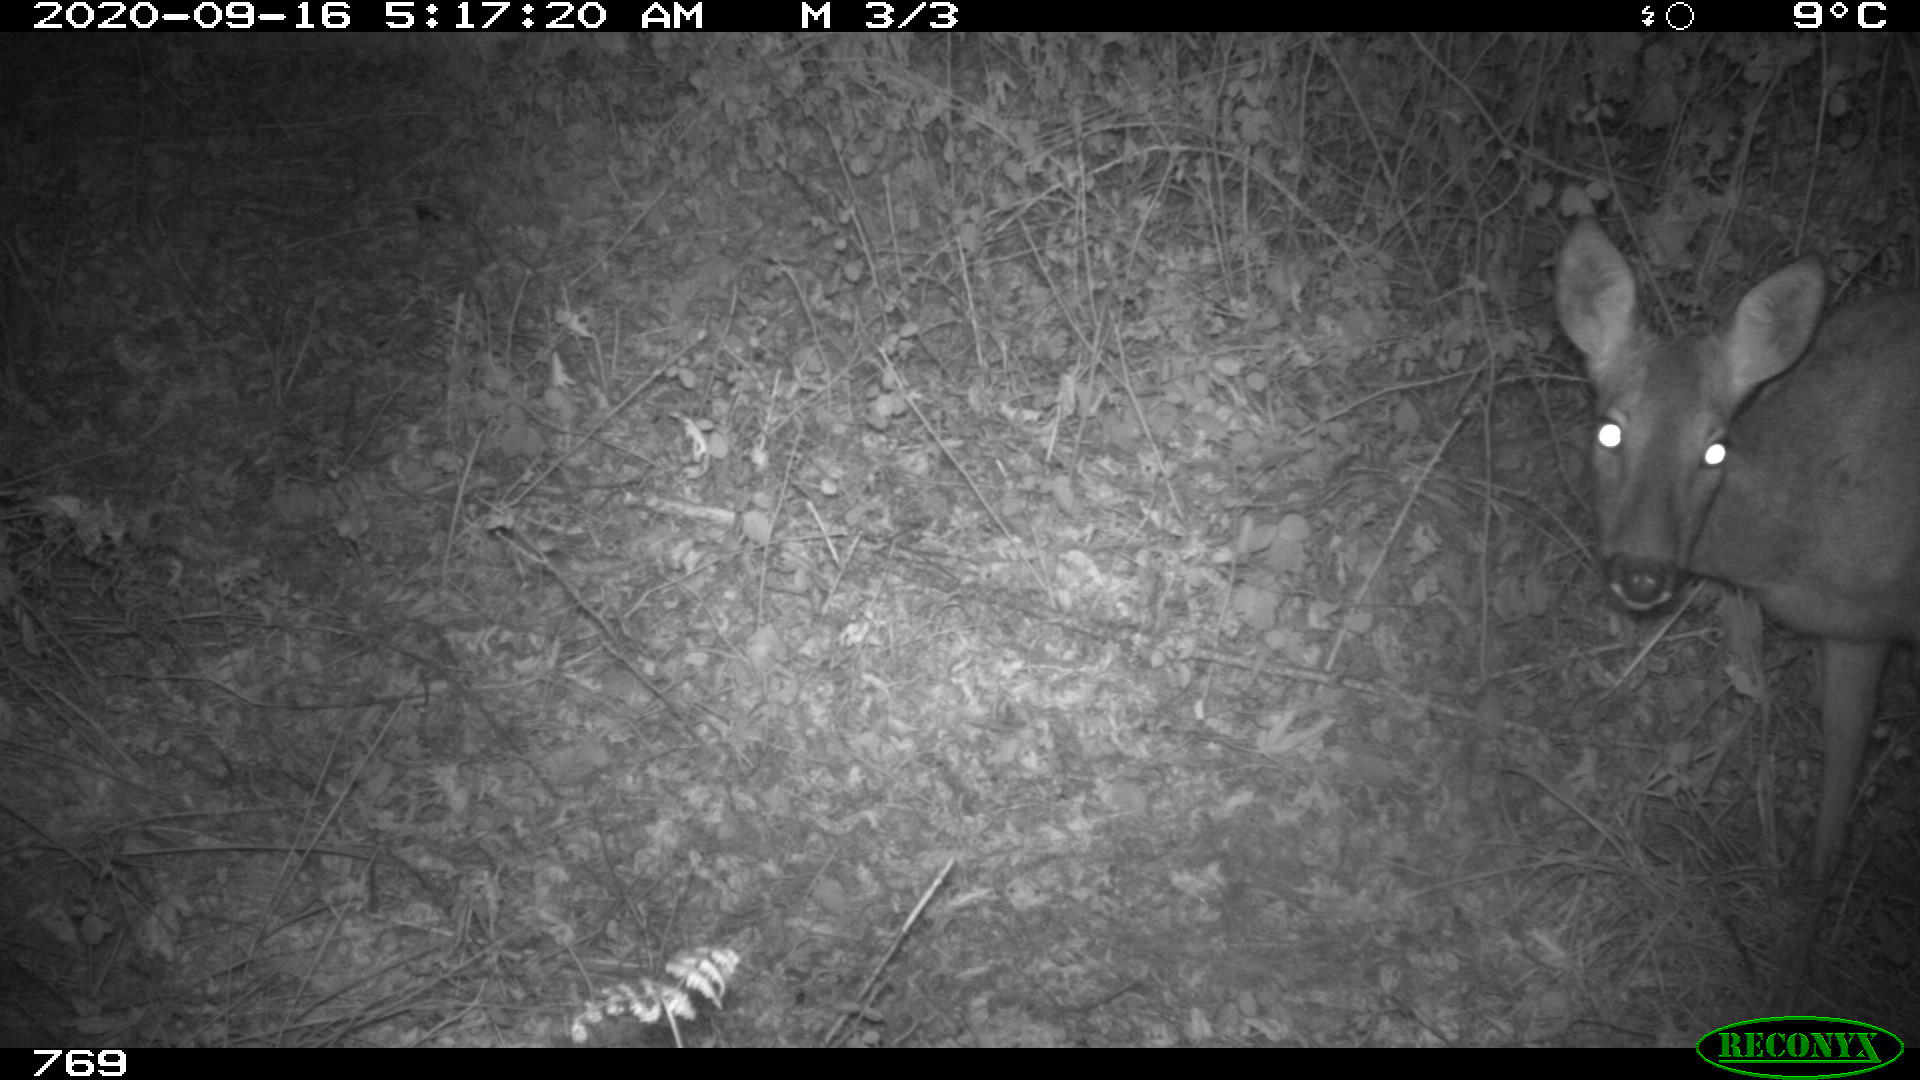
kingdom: Animalia
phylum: Chordata
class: Mammalia
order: Artiodactyla
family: Cervidae
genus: Capreolus
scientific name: Capreolus capreolus
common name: Western roe deer
